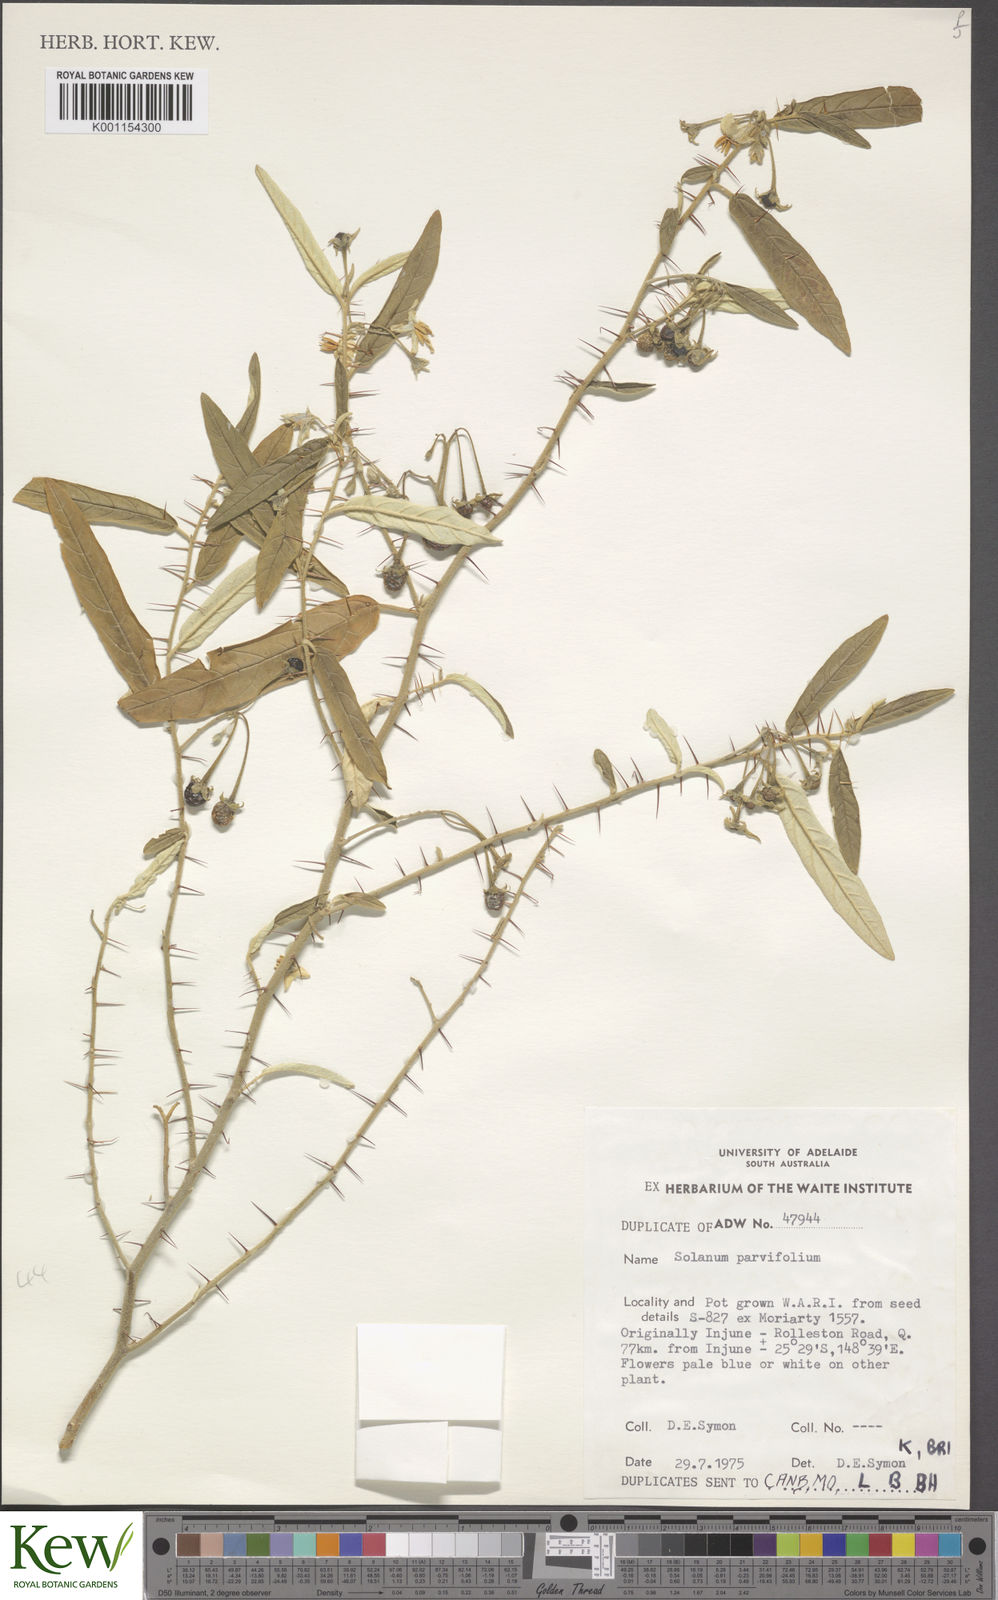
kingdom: Plantae
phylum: Tracheophyta
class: Magnoliopsida
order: Solanales
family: Solanaceae
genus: Solanum
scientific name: Solanum parvifolium
